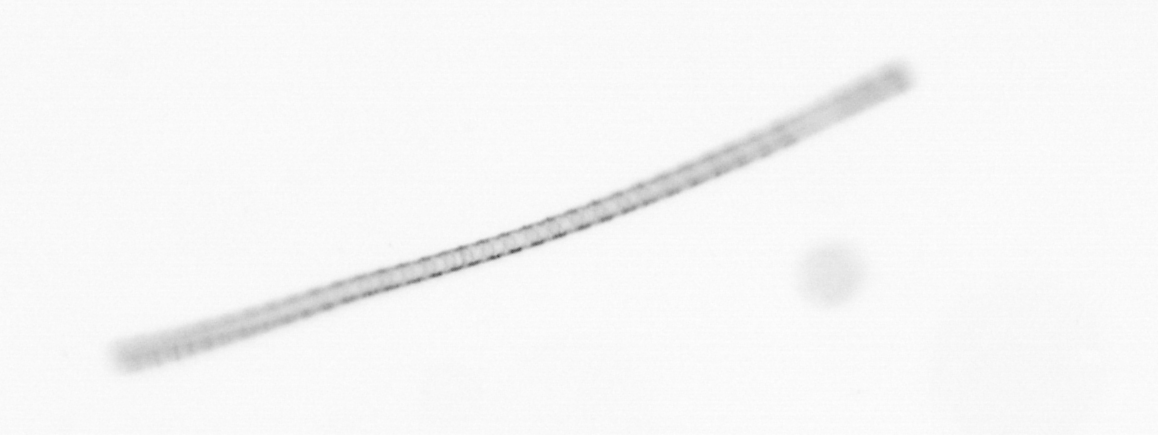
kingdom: Chromista
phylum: Ochrophyta
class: Bacillariophyceae
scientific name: Bacillariophyceae
